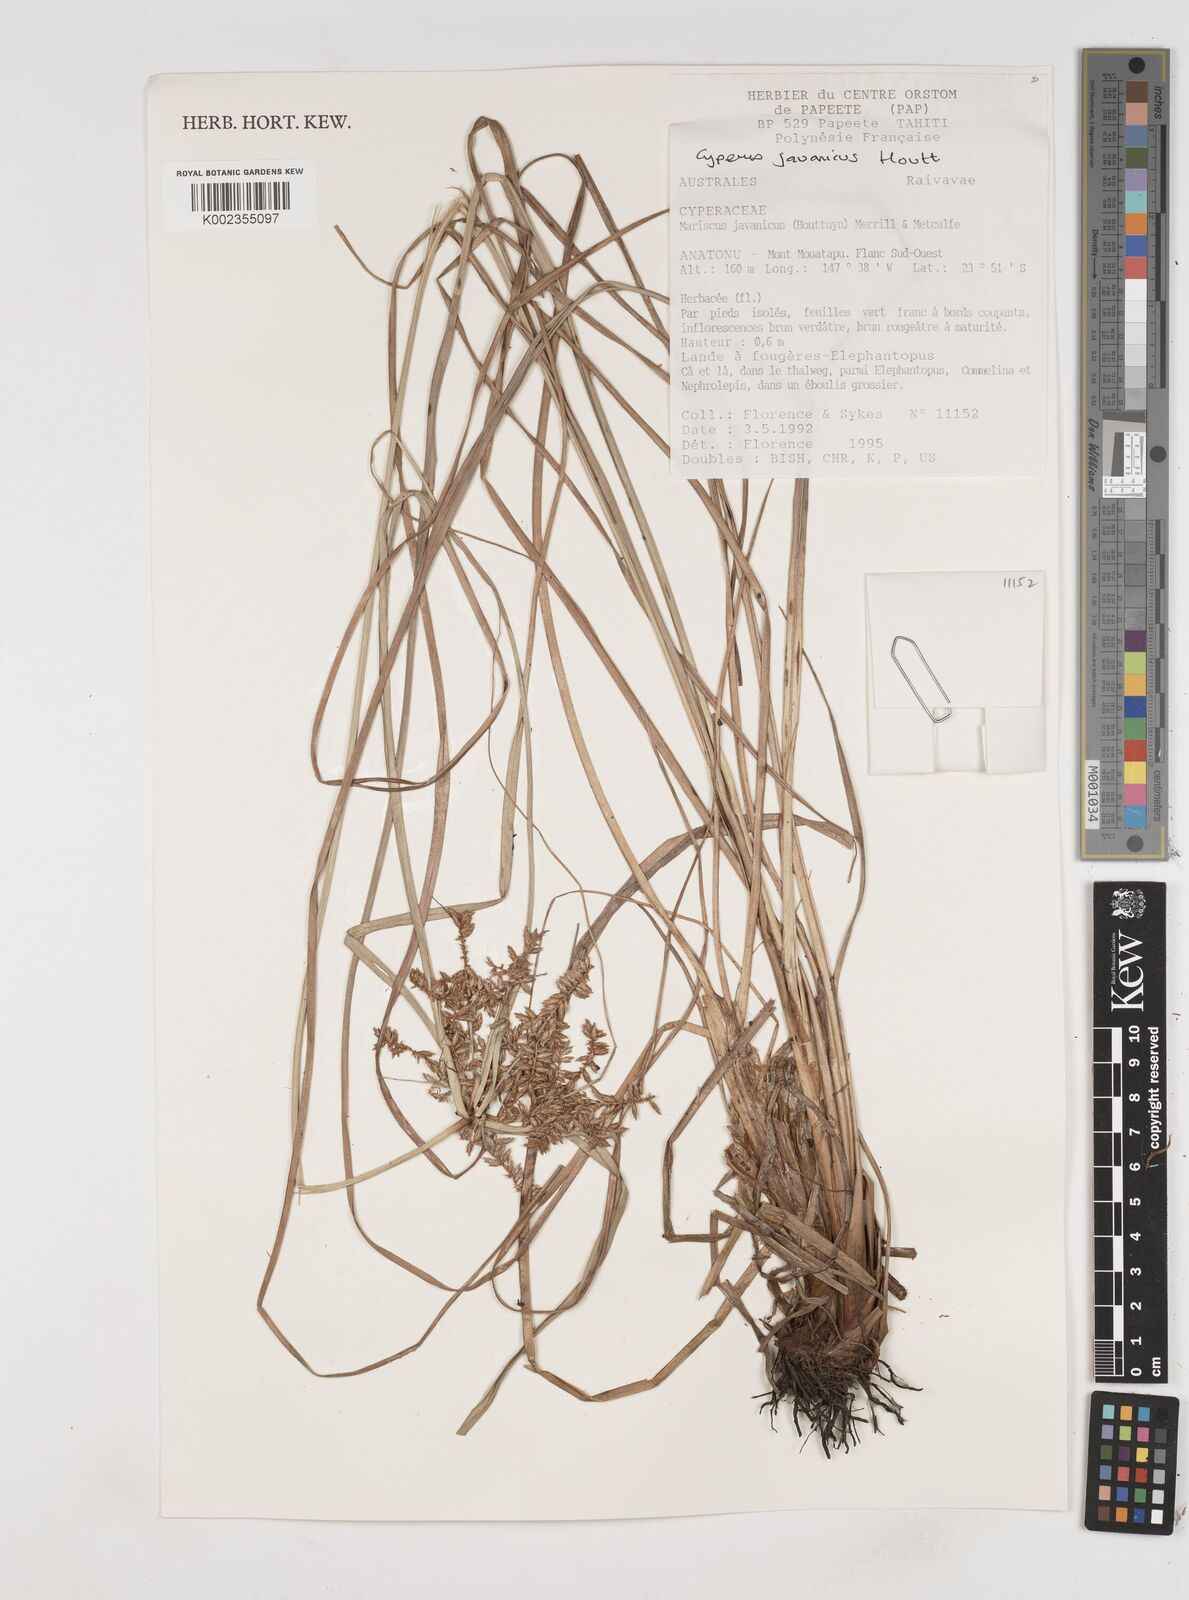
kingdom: Plantae
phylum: Tracheophyta
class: Liliopsida
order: Poales
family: Cyperaceae
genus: Cyperus
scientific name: Cyperus javanicus
